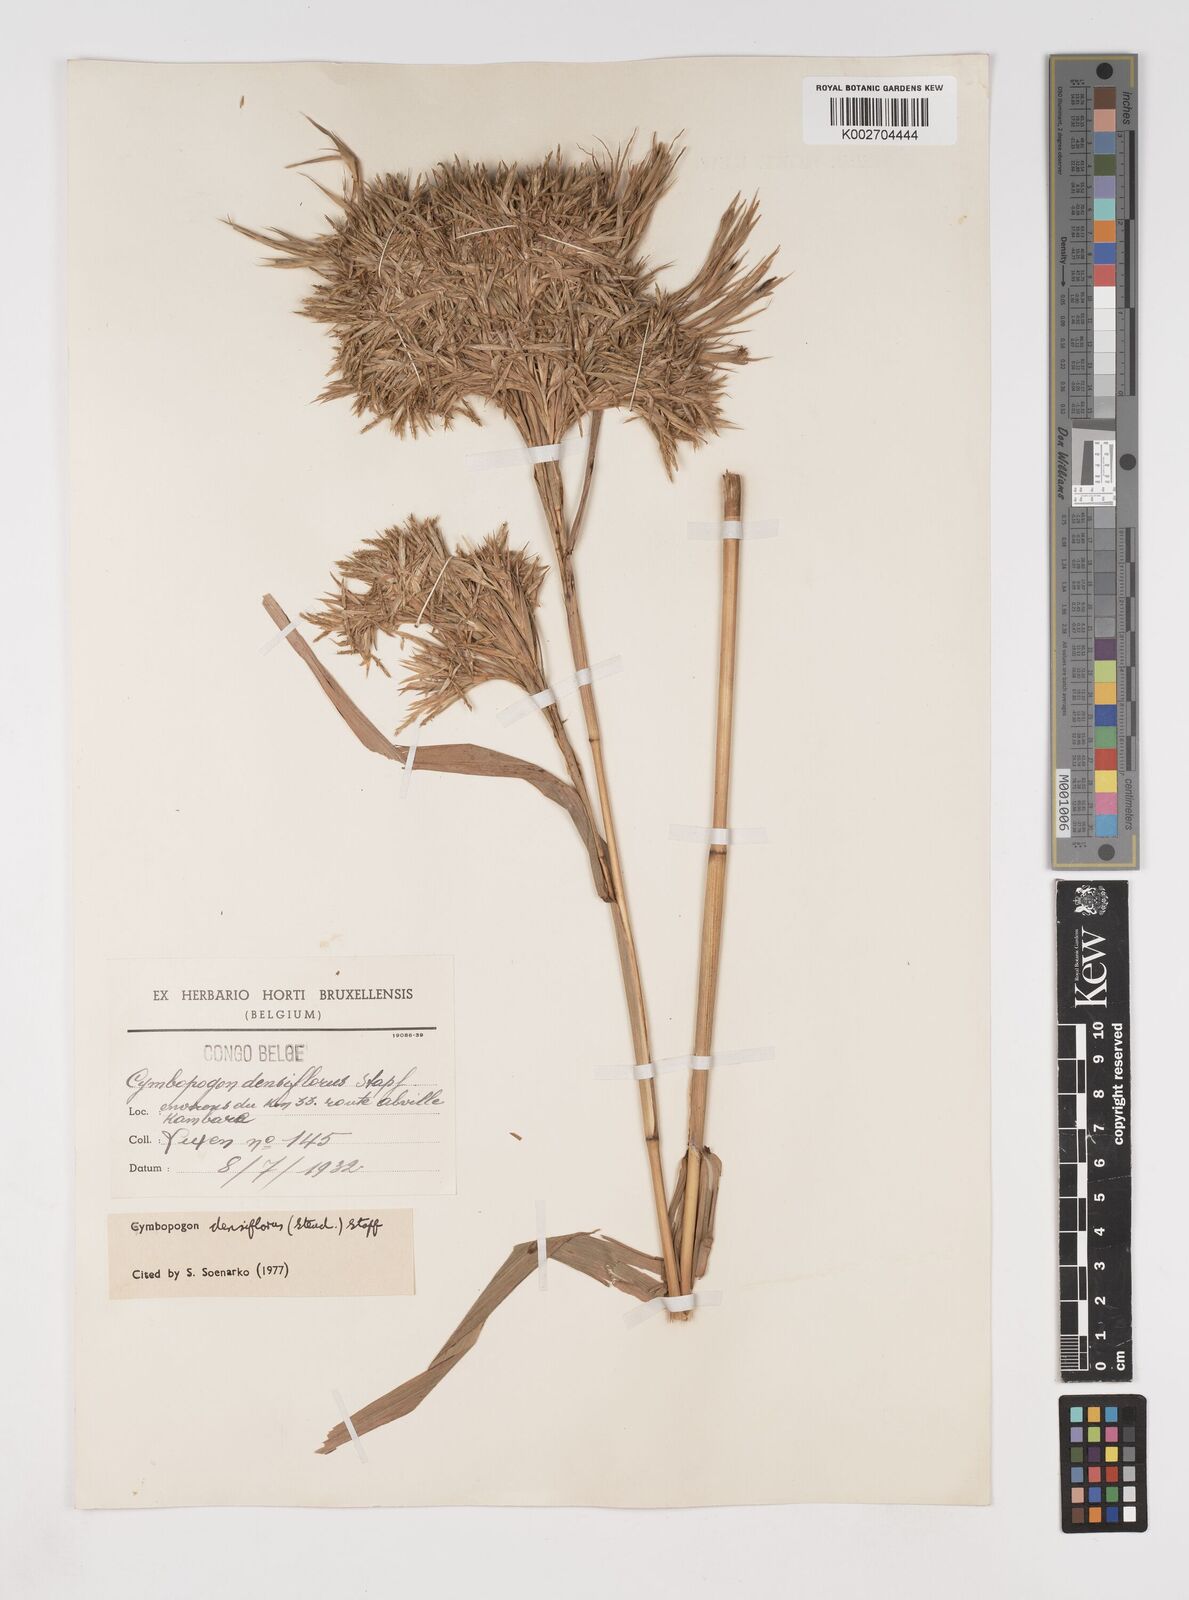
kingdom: Plantae
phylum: Tracheophyta
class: Liliopsida
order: Poales
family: Poaceae
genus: Cymbopogon
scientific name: Cymbopogon densiflorus
